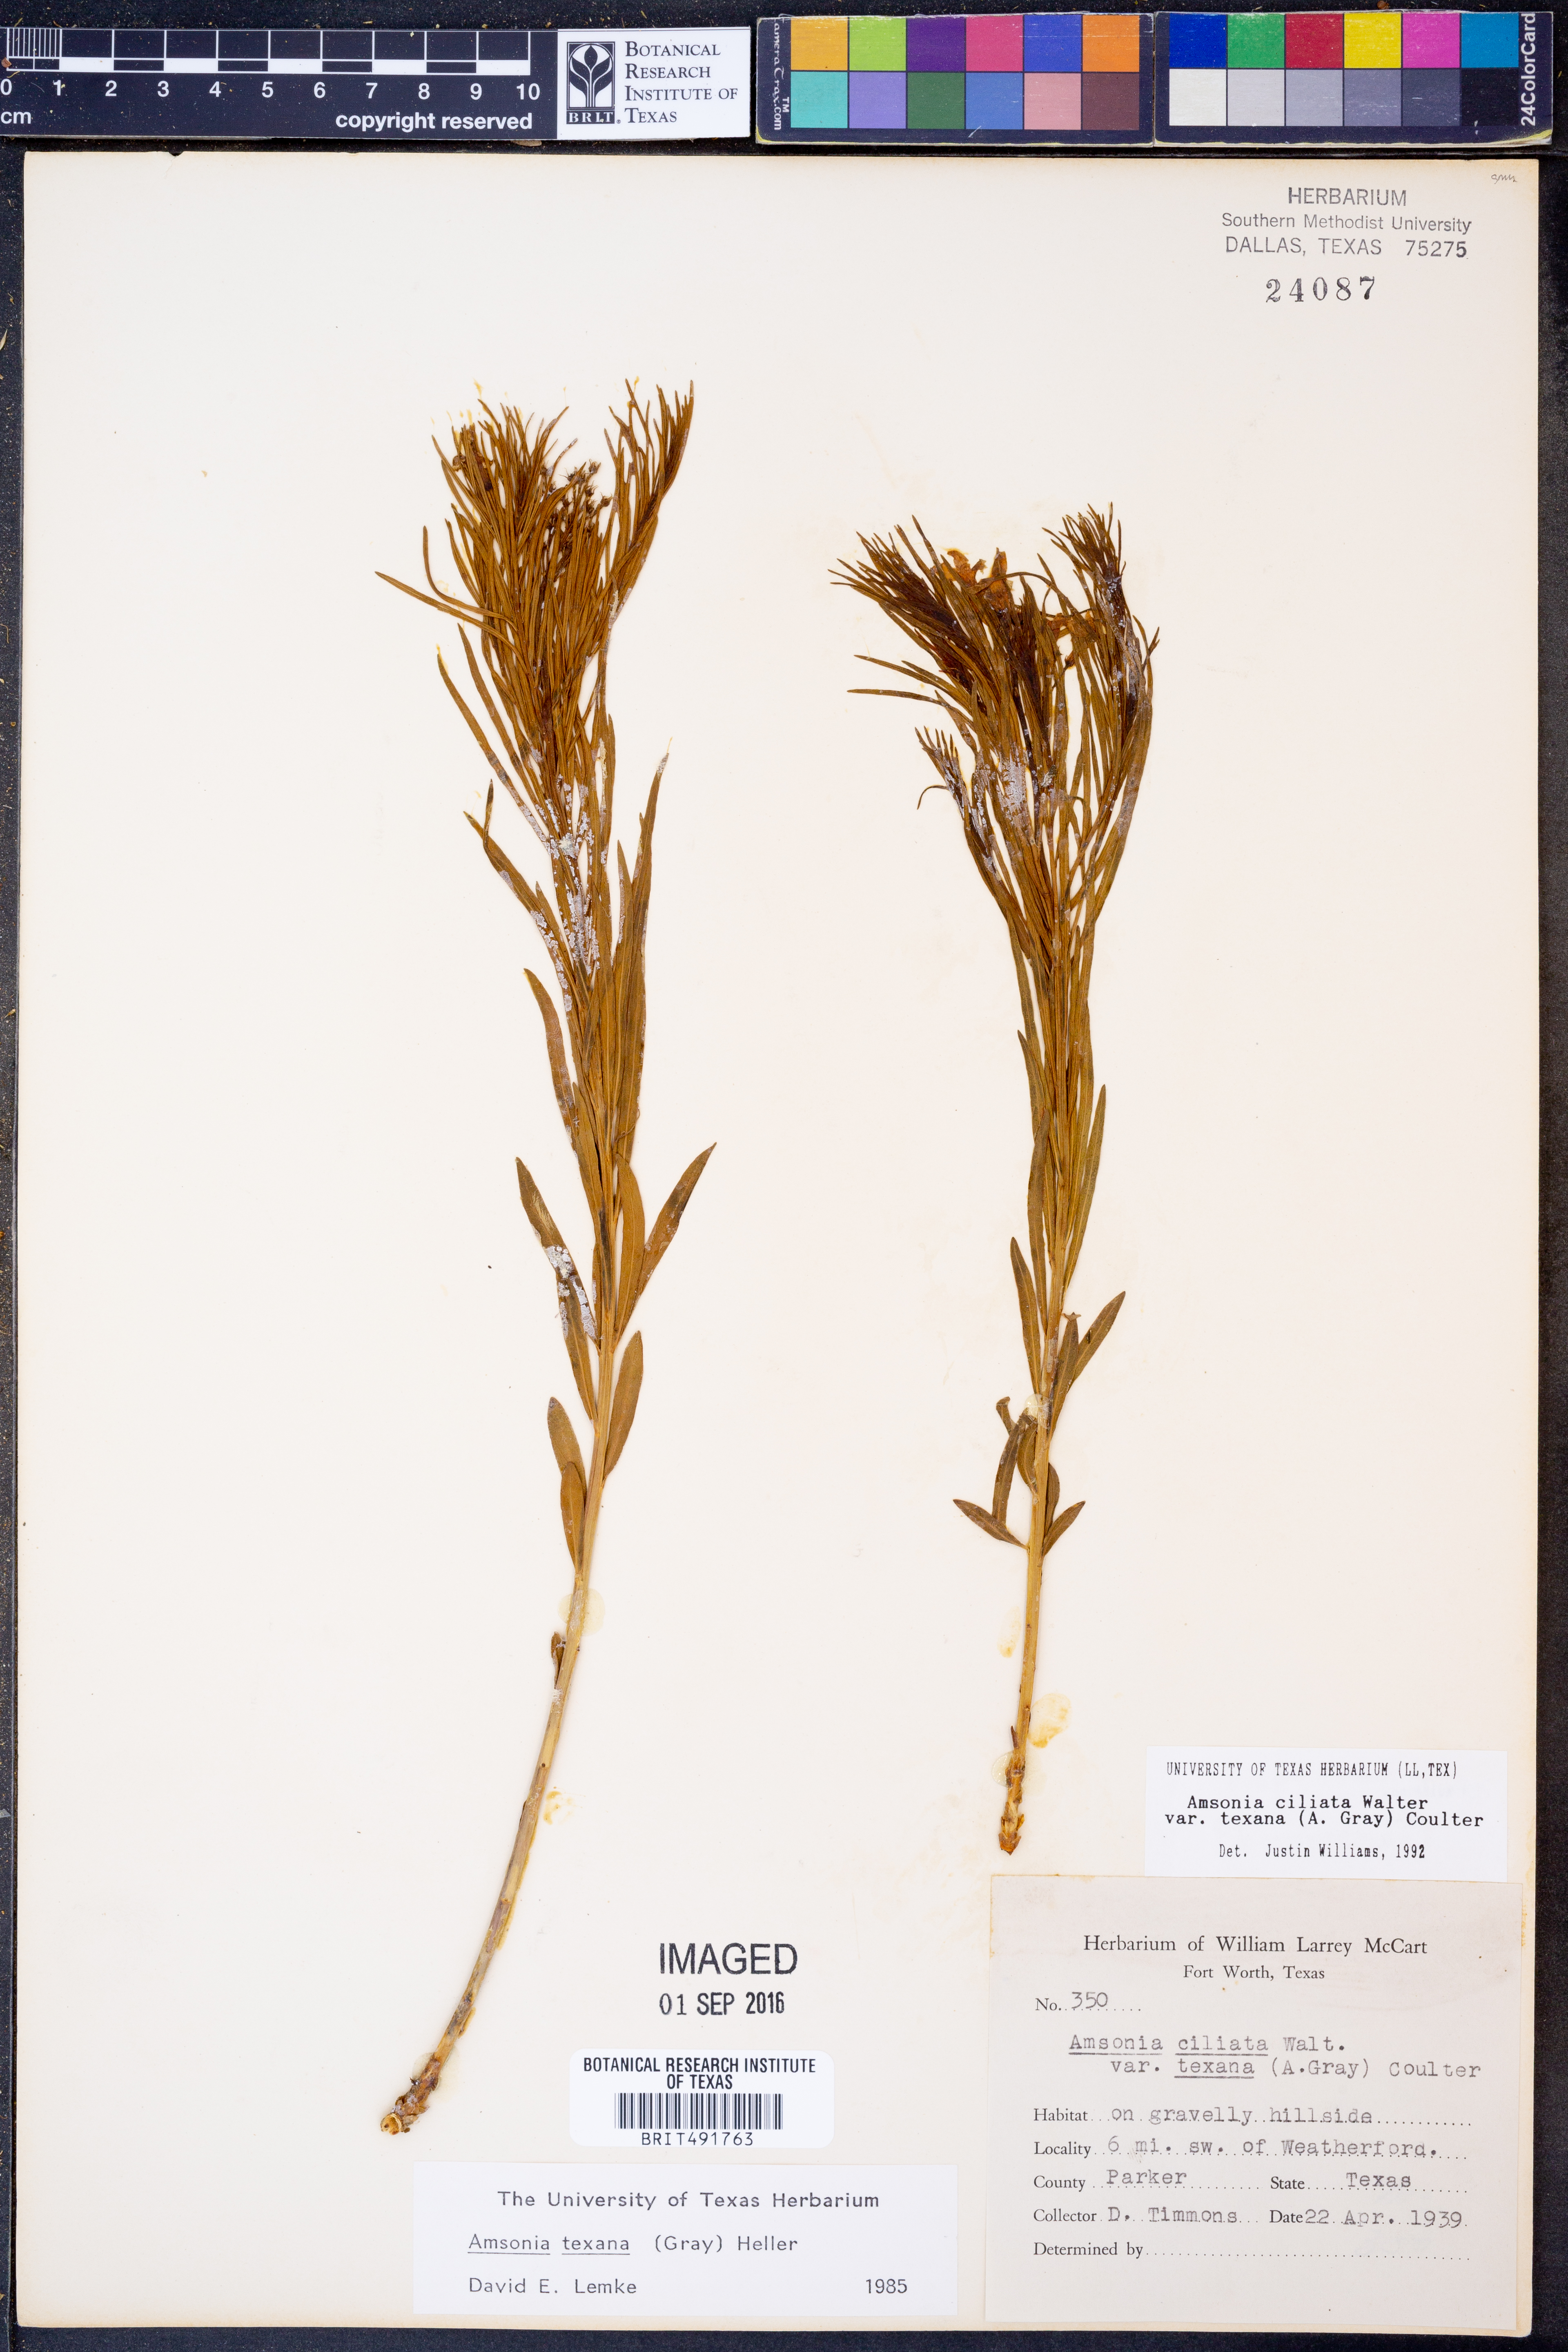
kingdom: Plantae
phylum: Tracheophyta
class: Magnoliopsida
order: Gentianales
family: Apocynaceae
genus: Amsonia
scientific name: Amsonia ciliata
